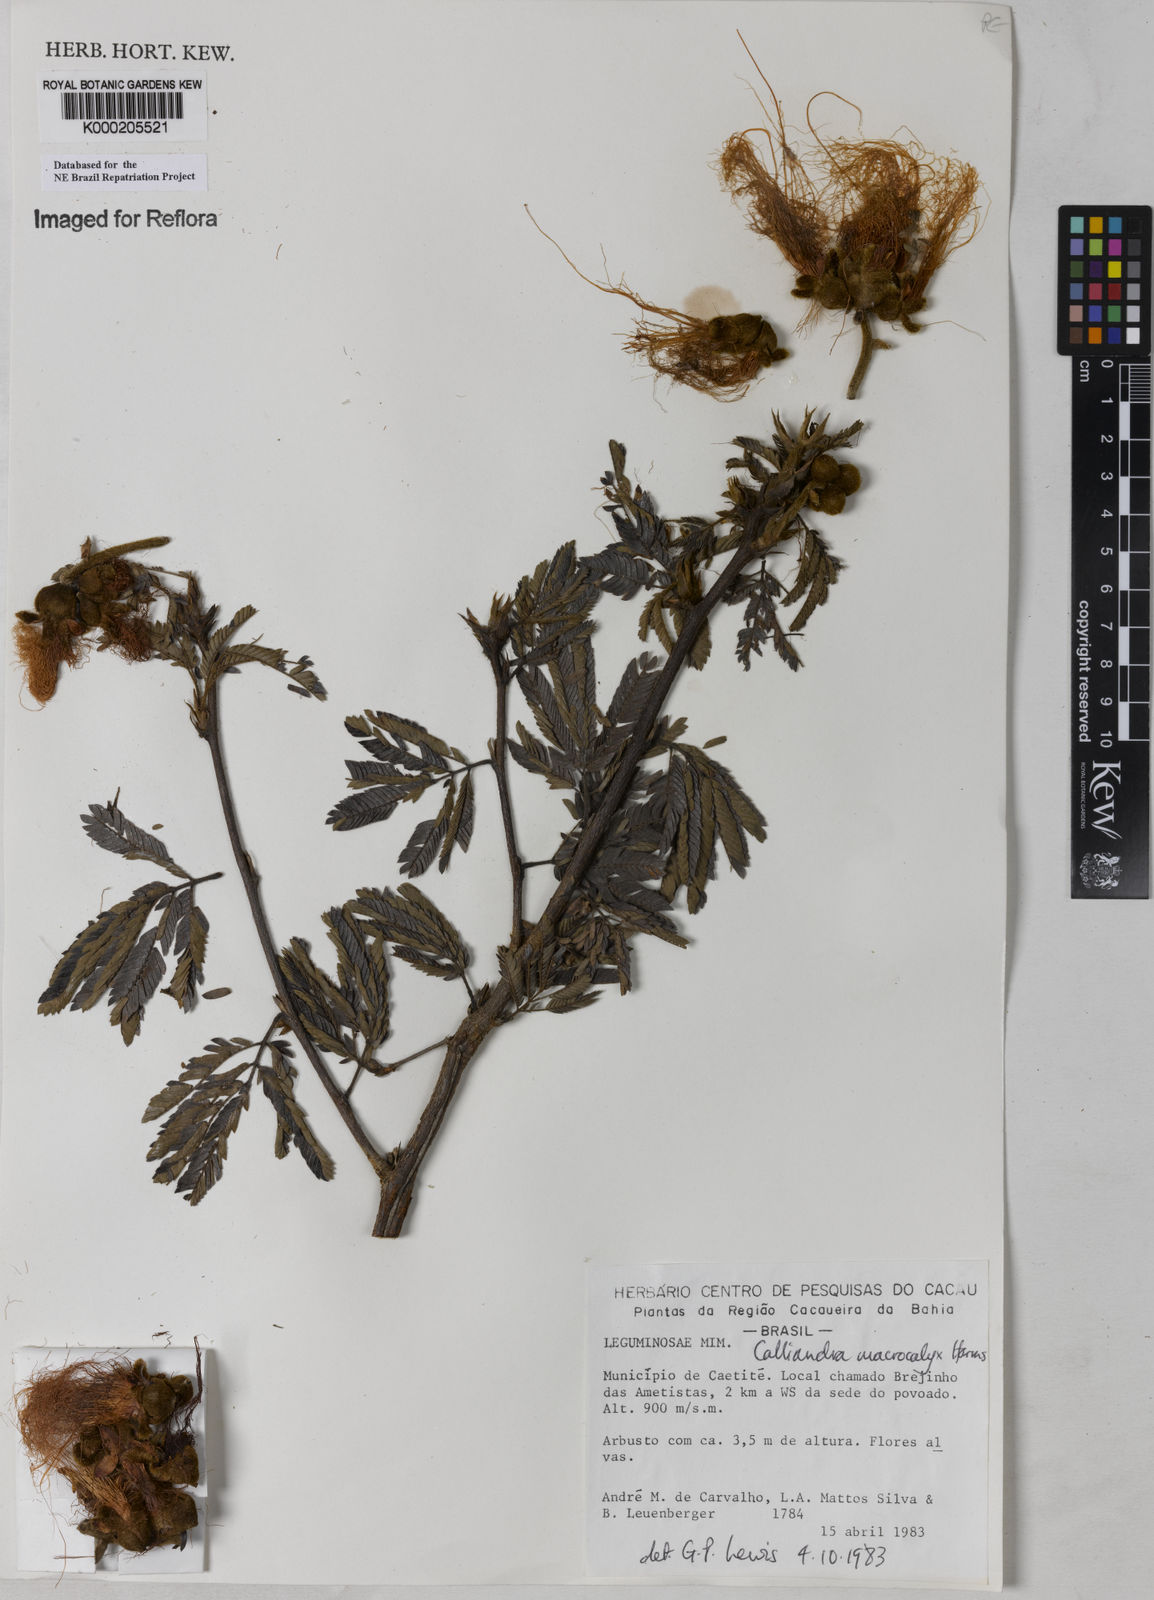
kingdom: Plantae
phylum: Tracheophyta
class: Magnoliopsida
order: Fabales
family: Fabaceae
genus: Calliandra
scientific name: Calliandra macrocalyx
